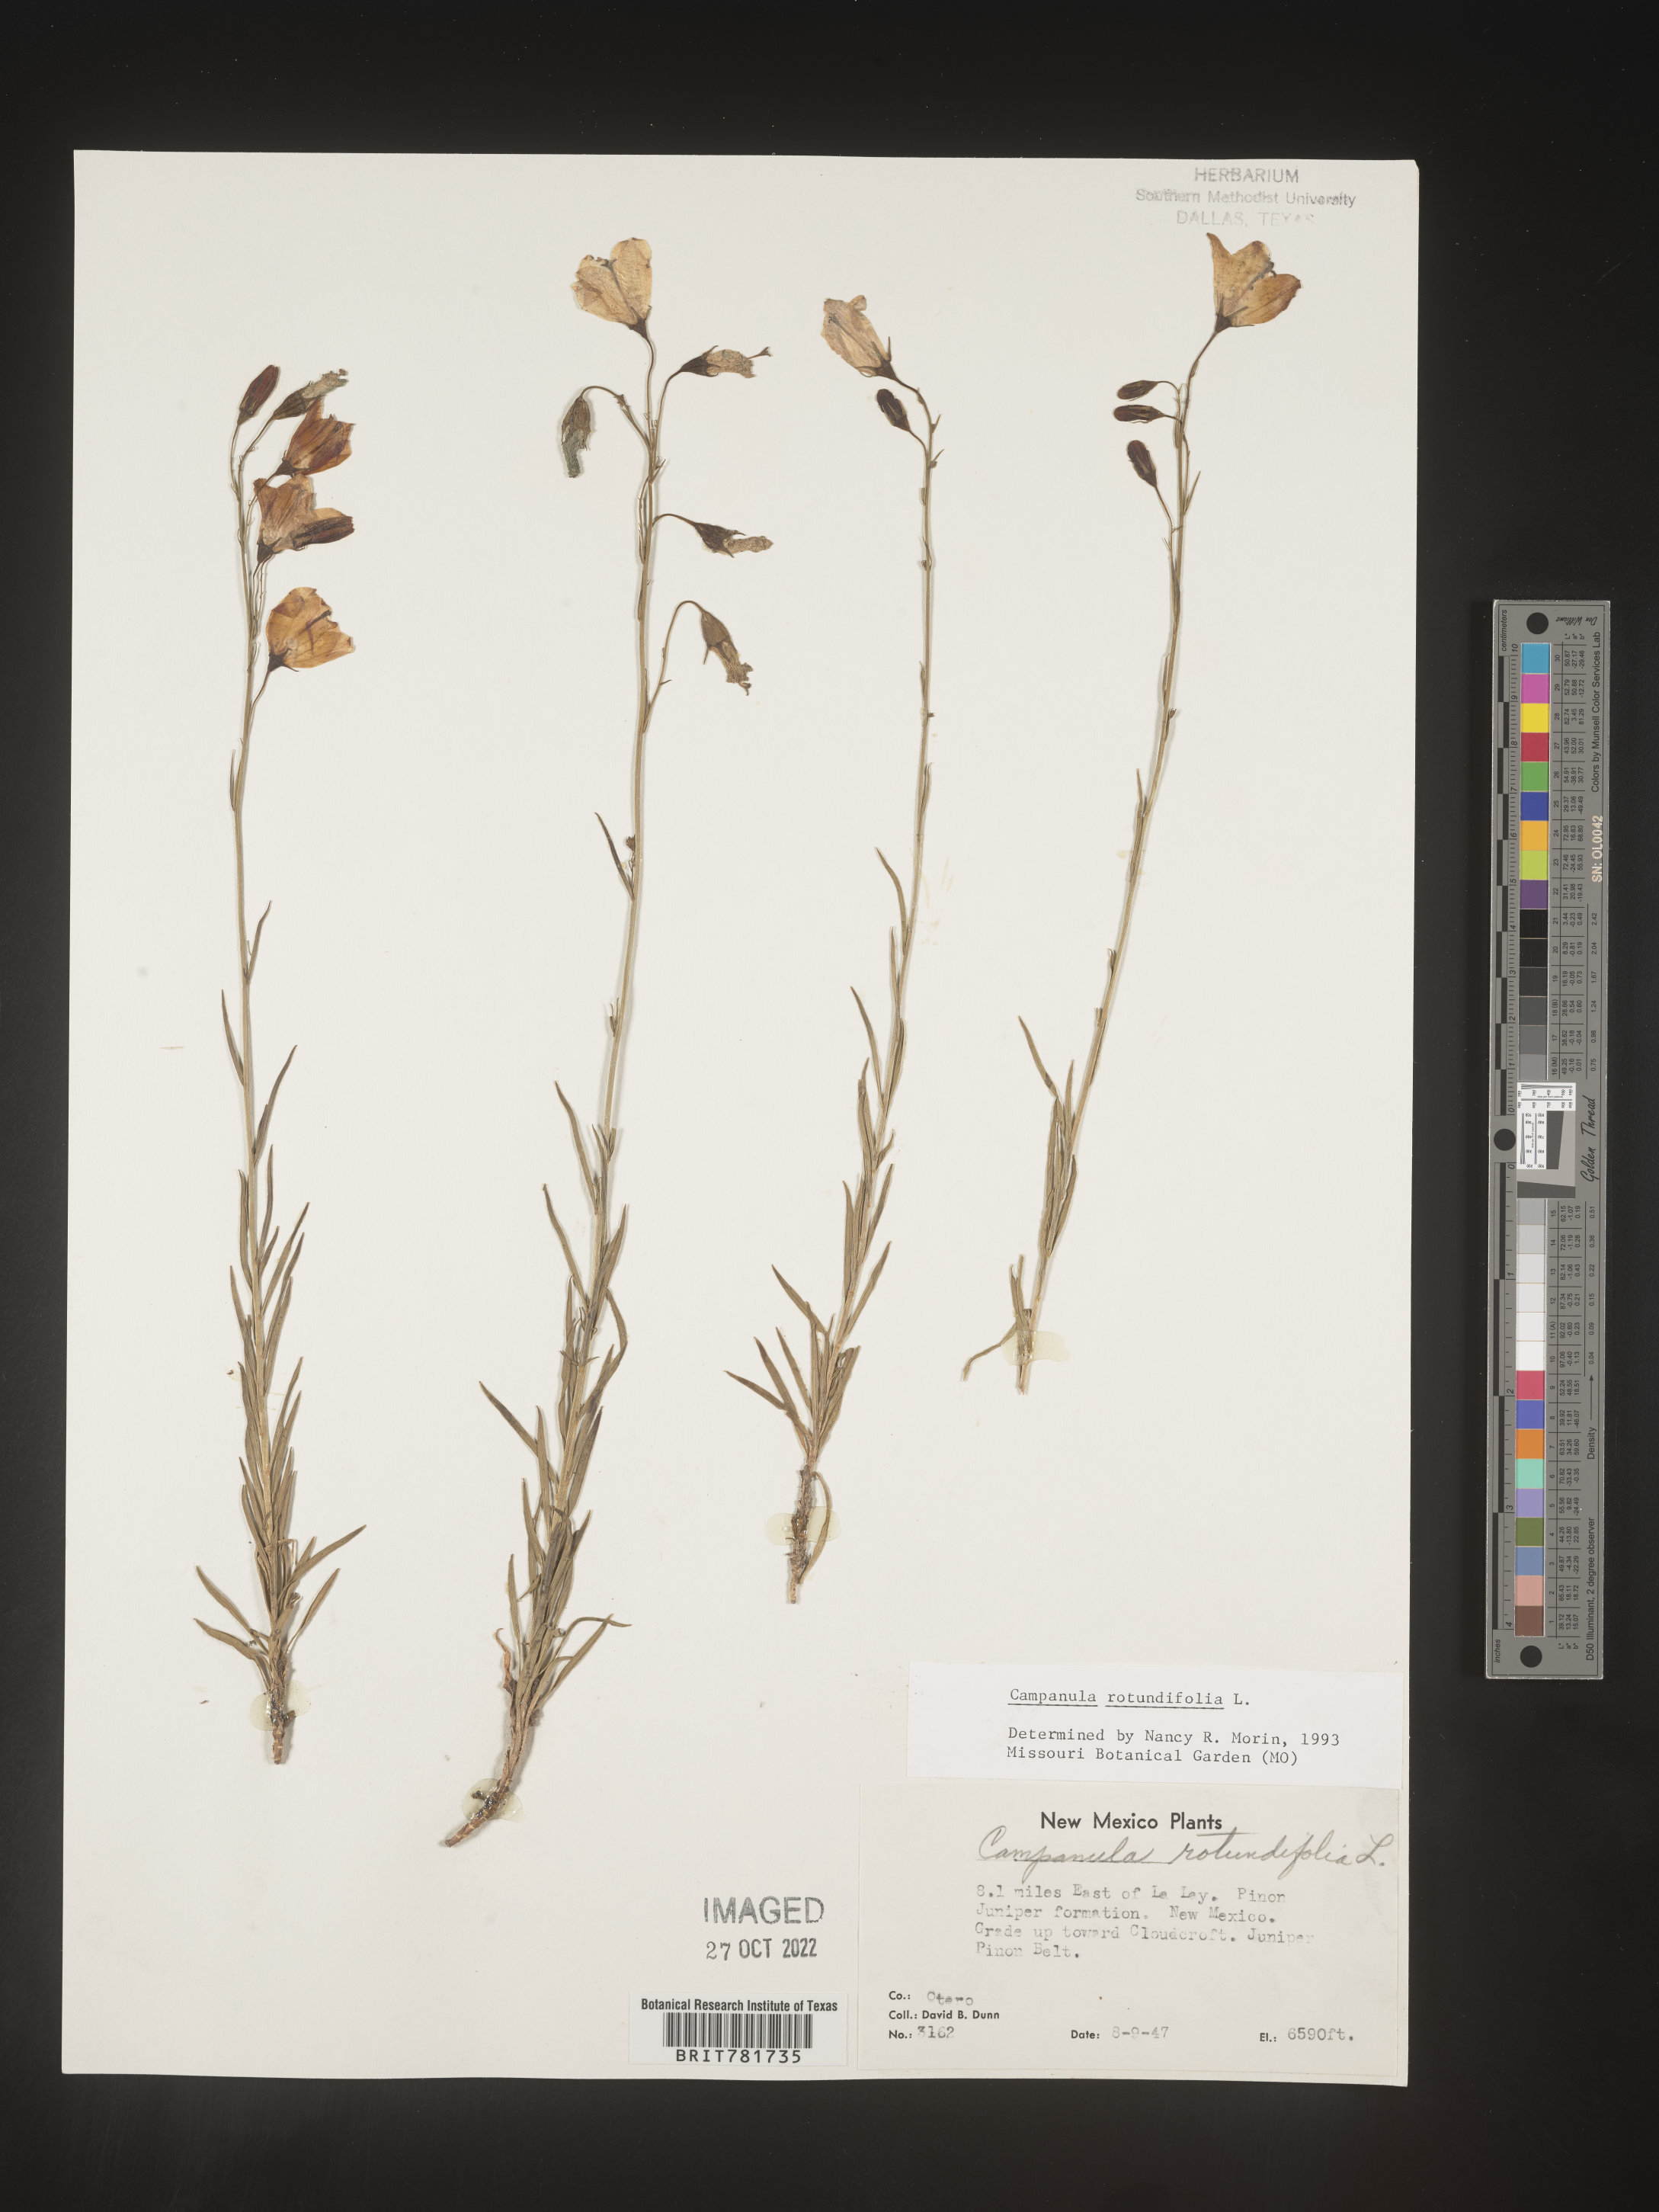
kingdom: Plantae
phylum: Tracheophyta
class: Magnoliopsida
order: Asterales
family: Campanulaceae
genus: Campanula
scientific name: Campanula rotundifolia
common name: Harebell
